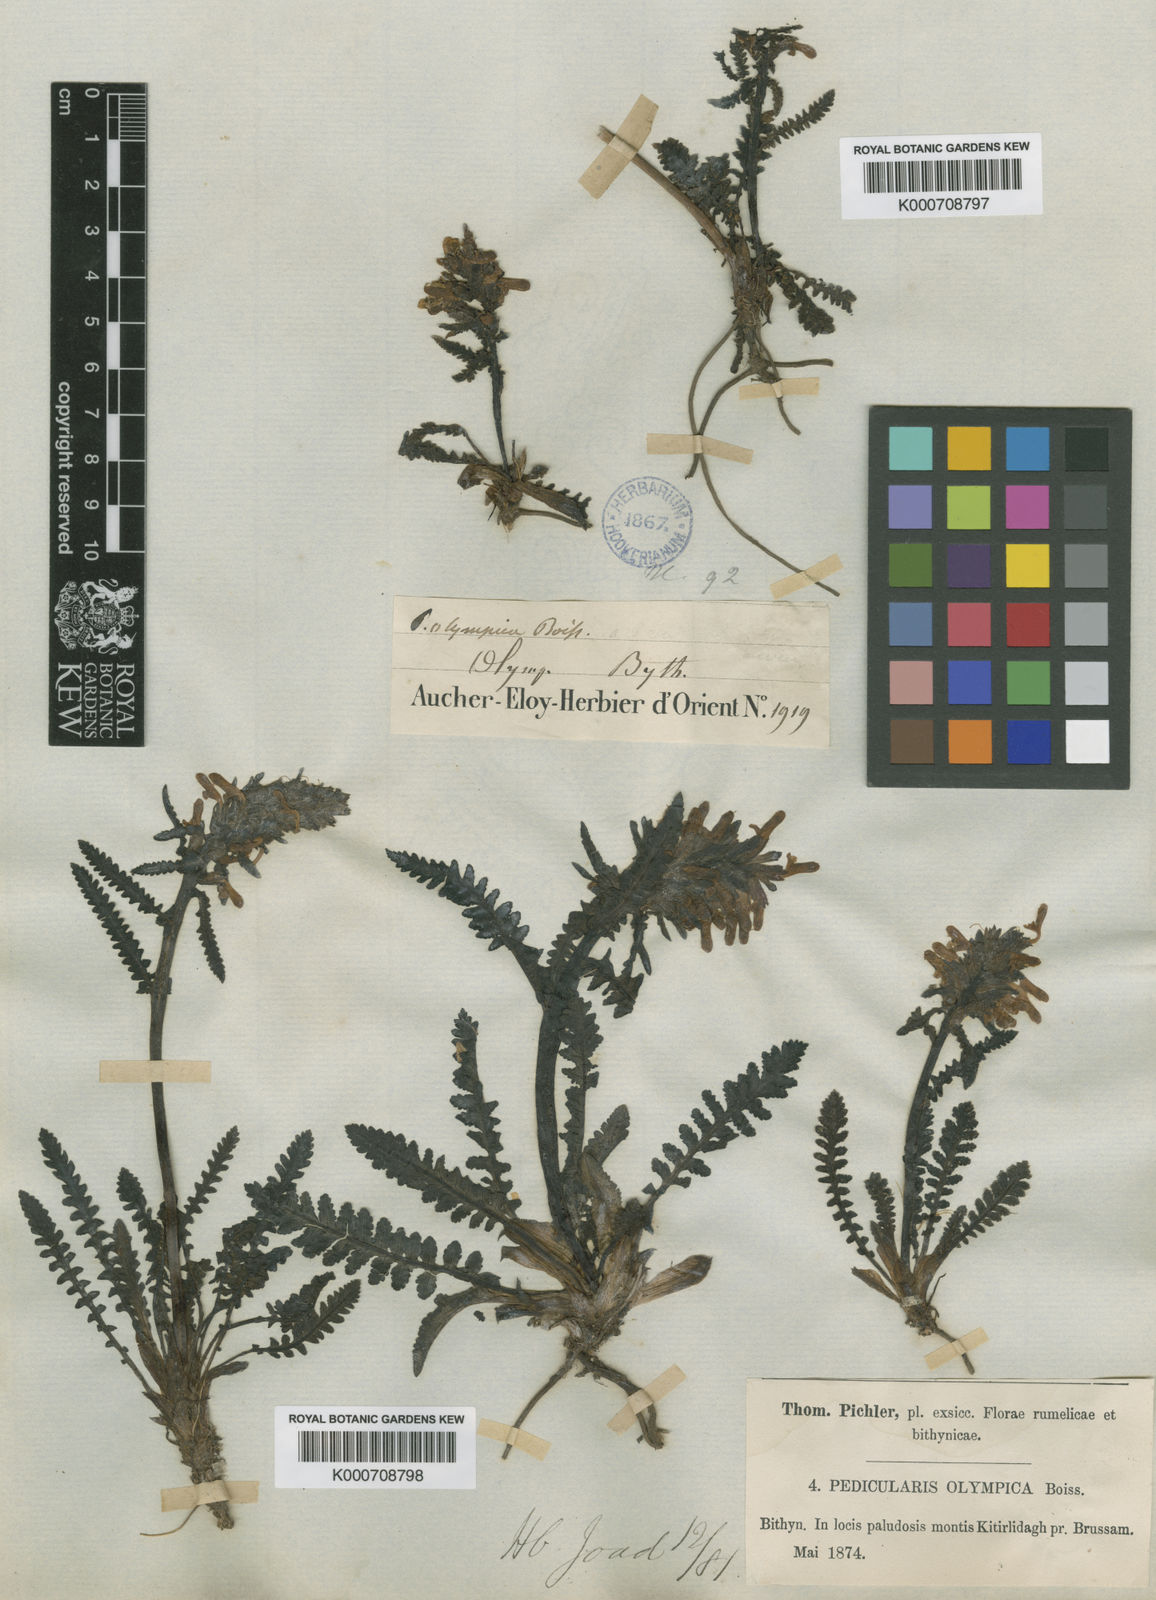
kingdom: Plantae
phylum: Tracheophyta
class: Magnoliopsida
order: Lamiales
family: Orobanchaceae
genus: Pedicularis
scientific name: Pedicularis olympica
